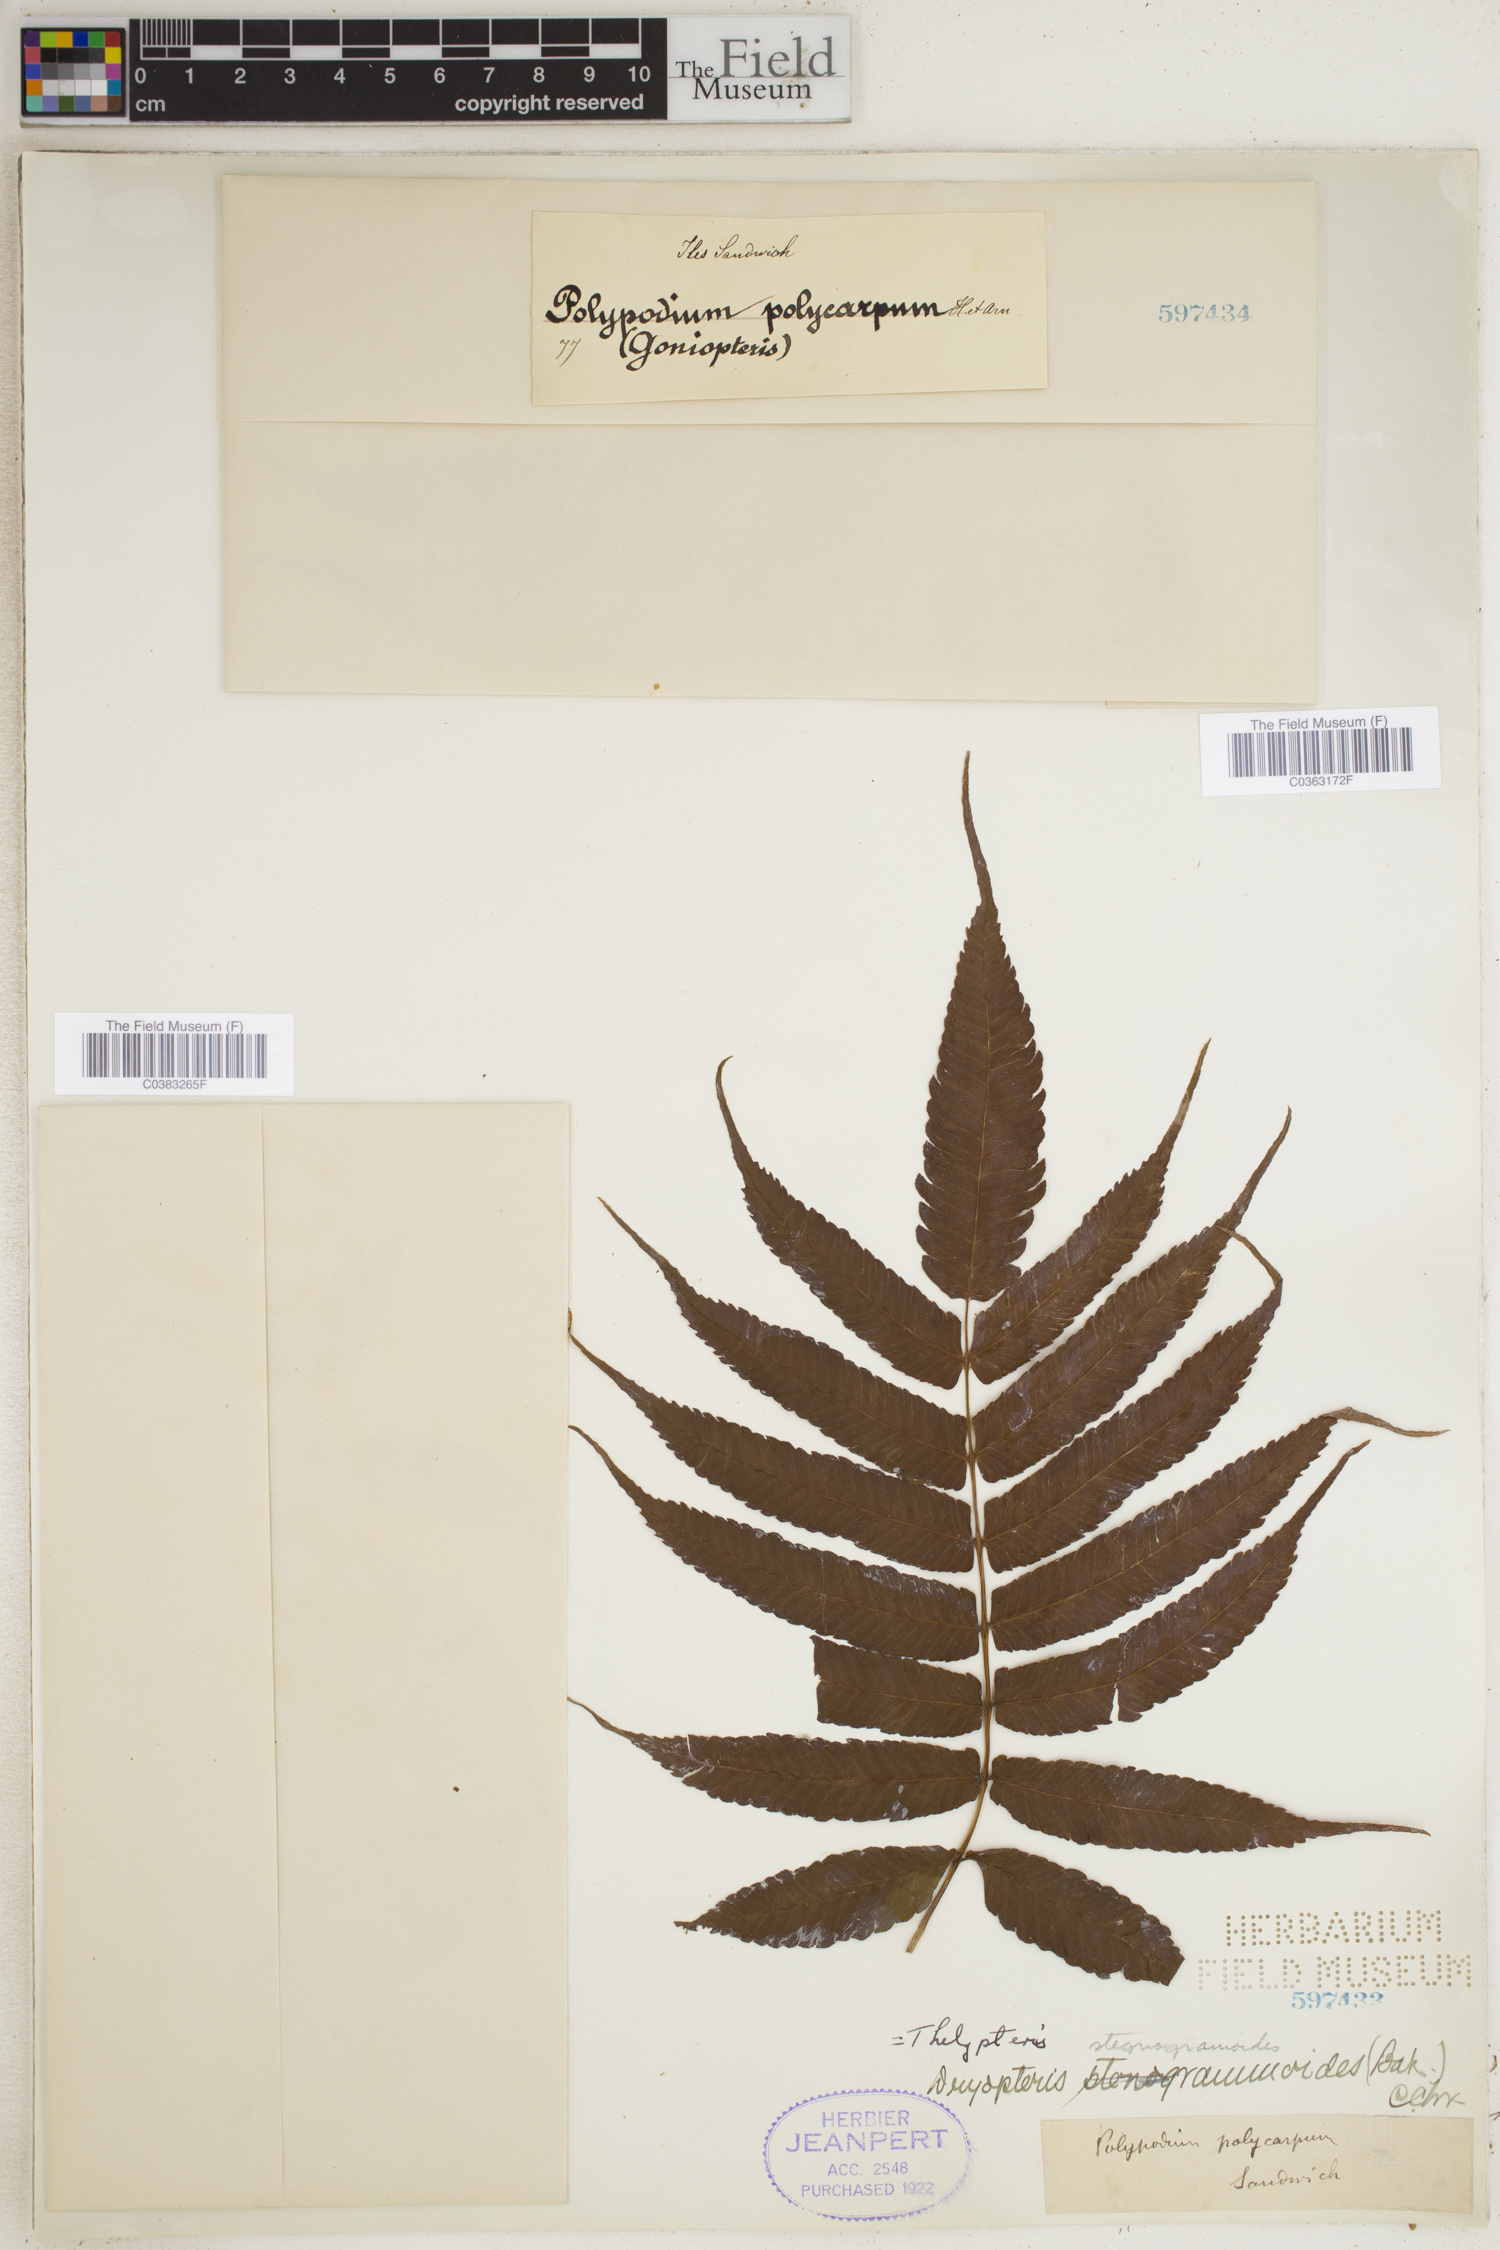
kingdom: Plantae
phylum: Tracheophyta
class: Polypodiopsida
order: Polypodiales
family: Tectariaceae
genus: Tectaria
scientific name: Tectaria barberi
